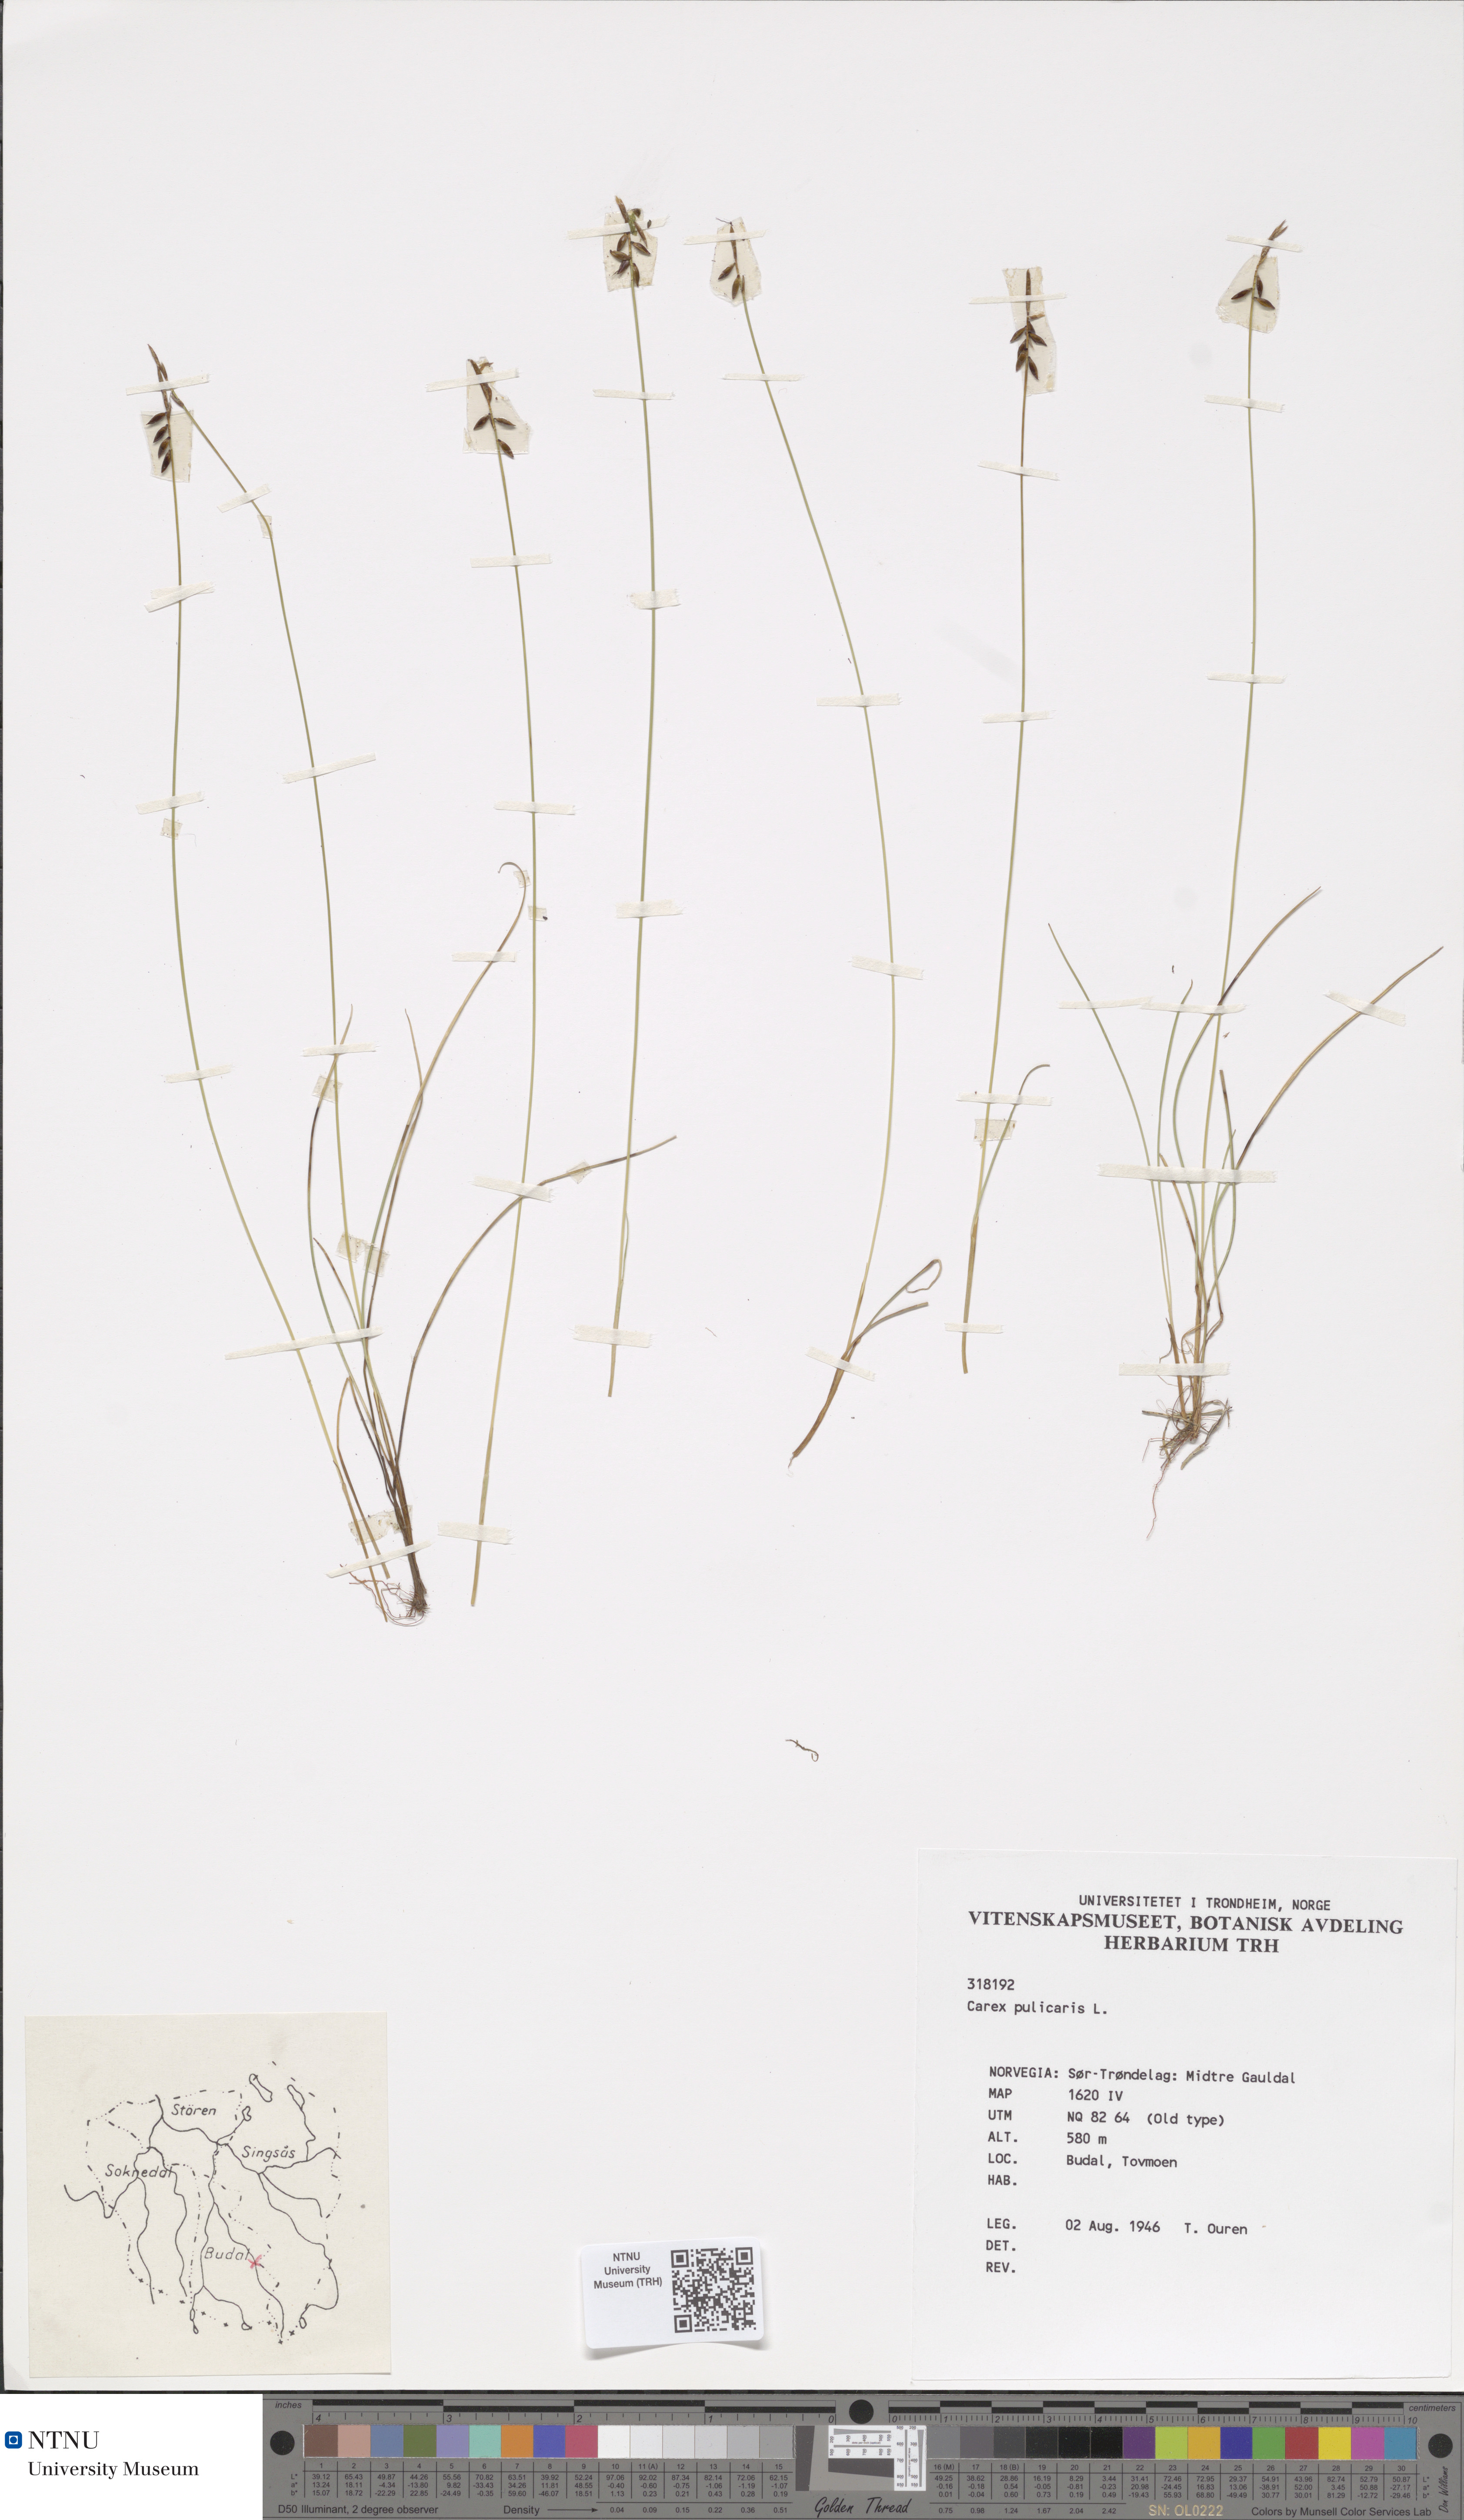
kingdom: Plantae
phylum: Tracheophyta
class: Liliopsida
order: Poales
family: Cyperaceae
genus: Carex
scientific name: Carex pulicaris
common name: Flea sedge
